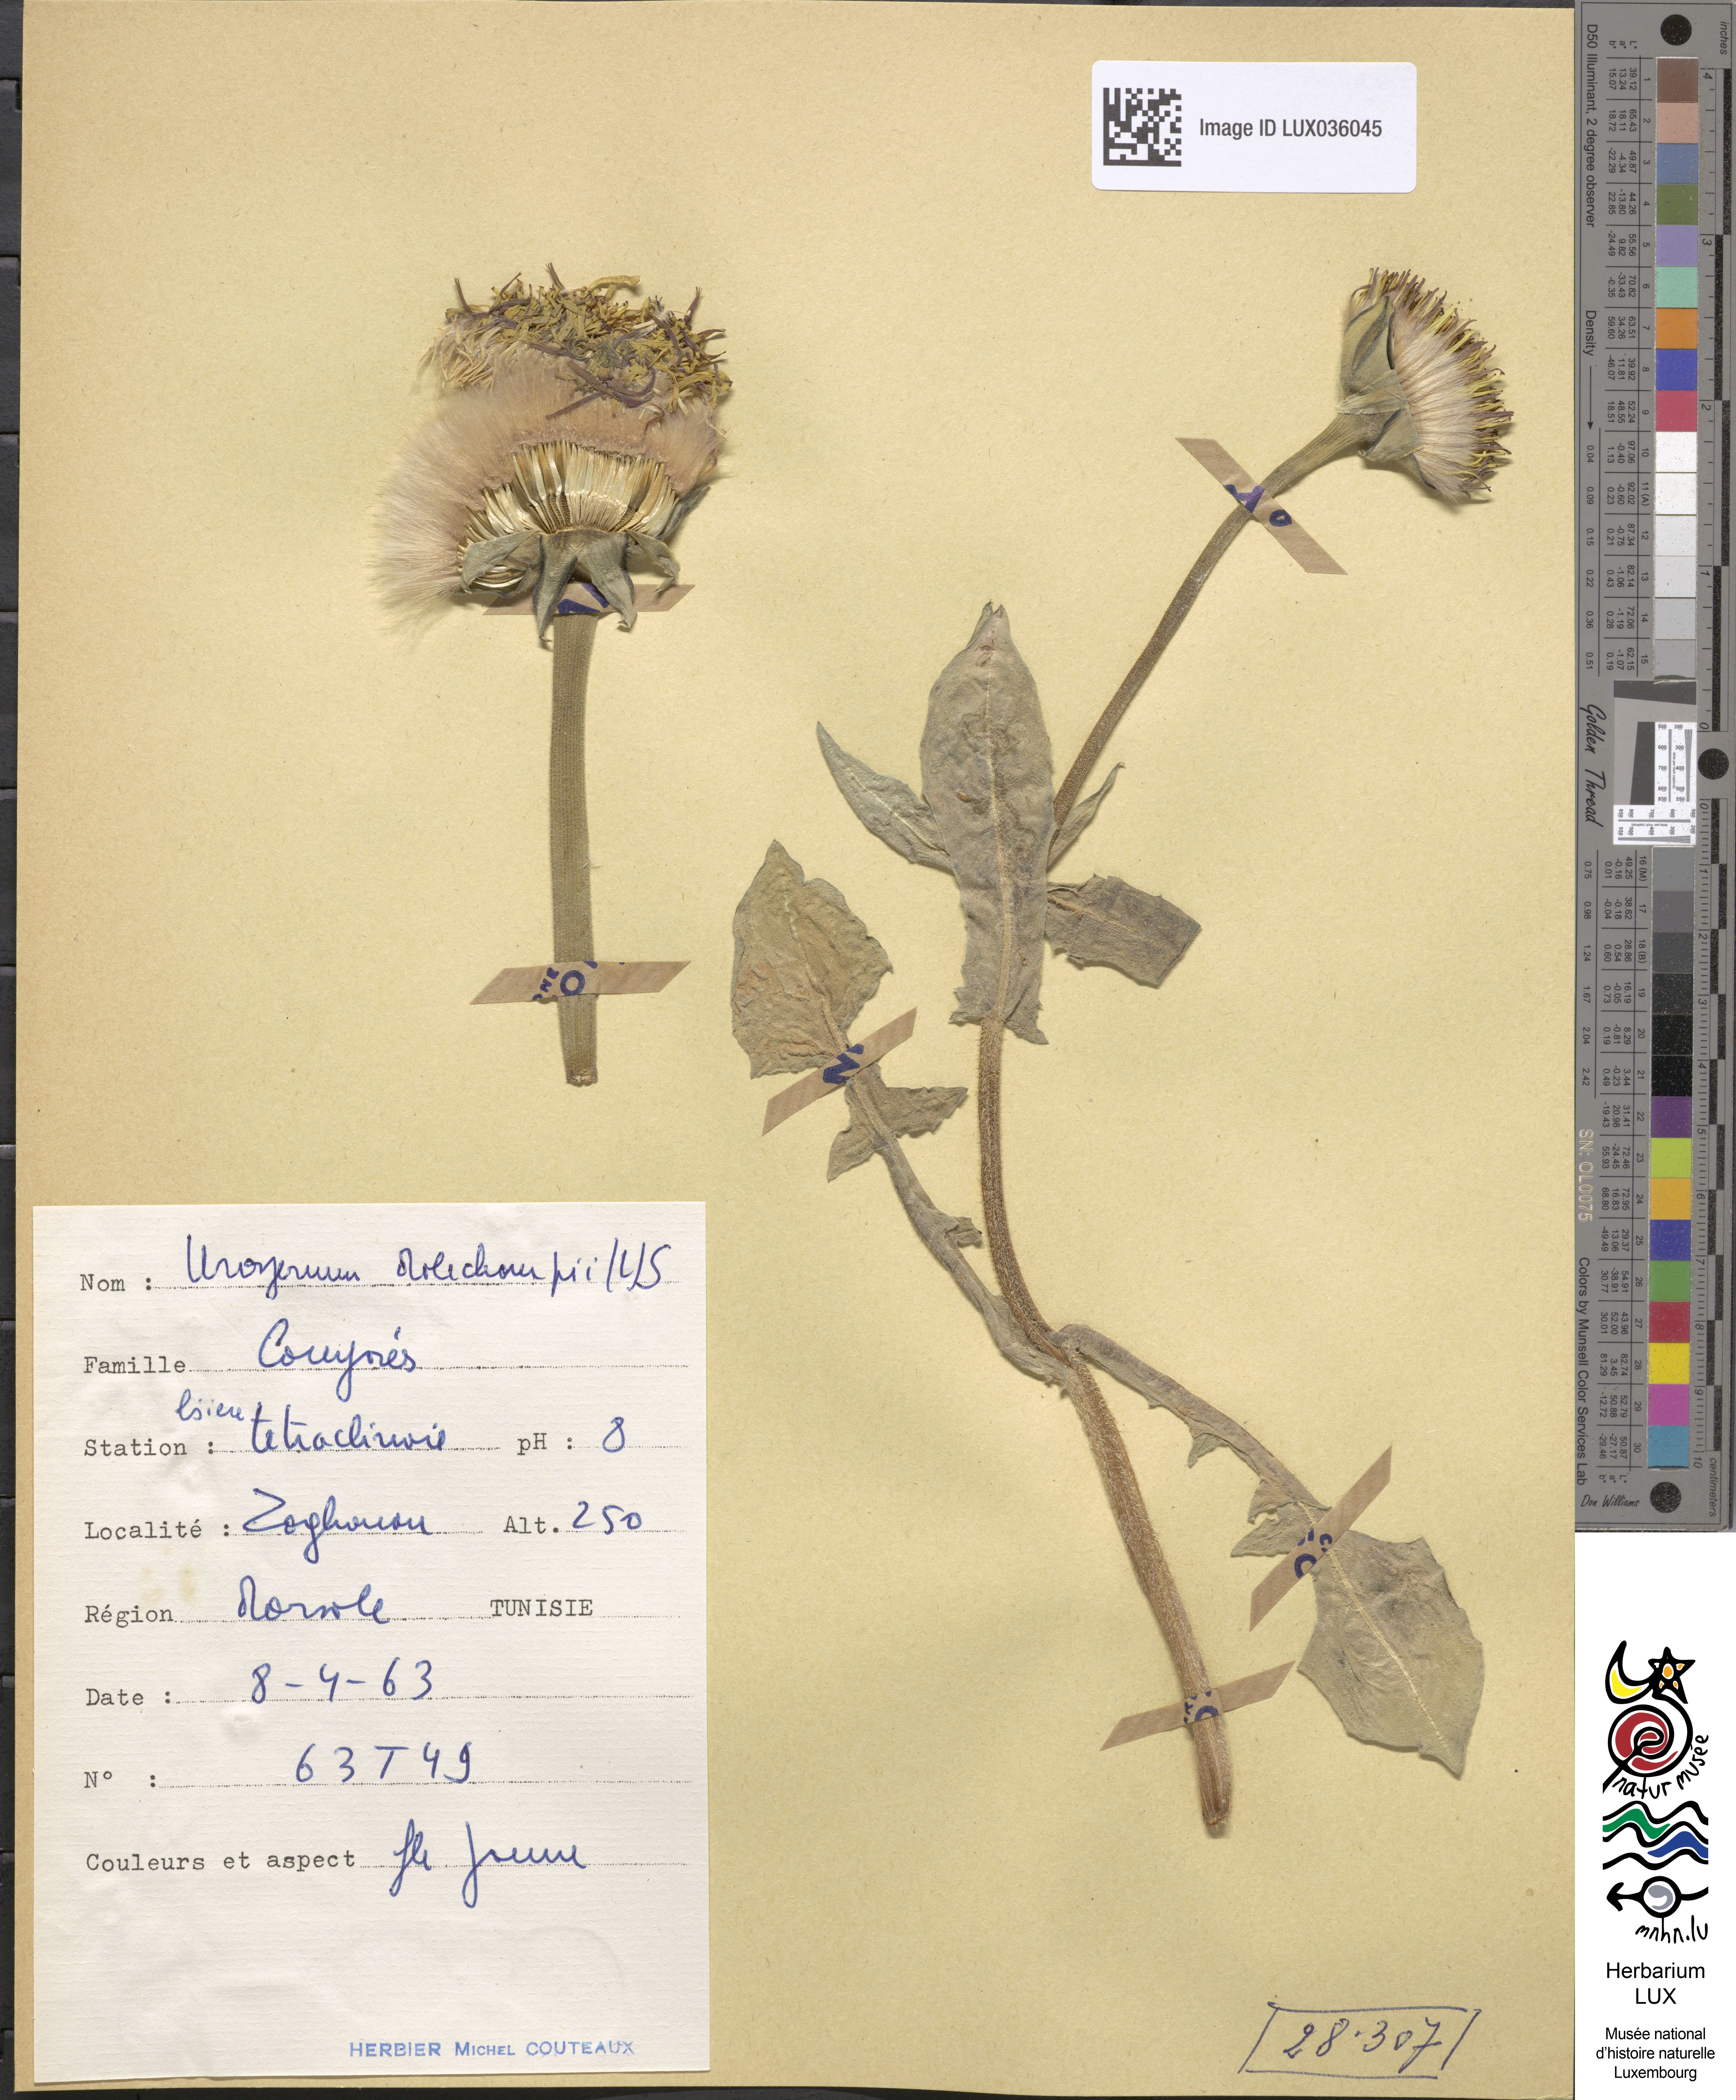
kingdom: Plantae
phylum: Tracheophyta
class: Magnoliopsida
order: Asterales
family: Asteraceae
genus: Urospermum
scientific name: Urospermum dalechampii
